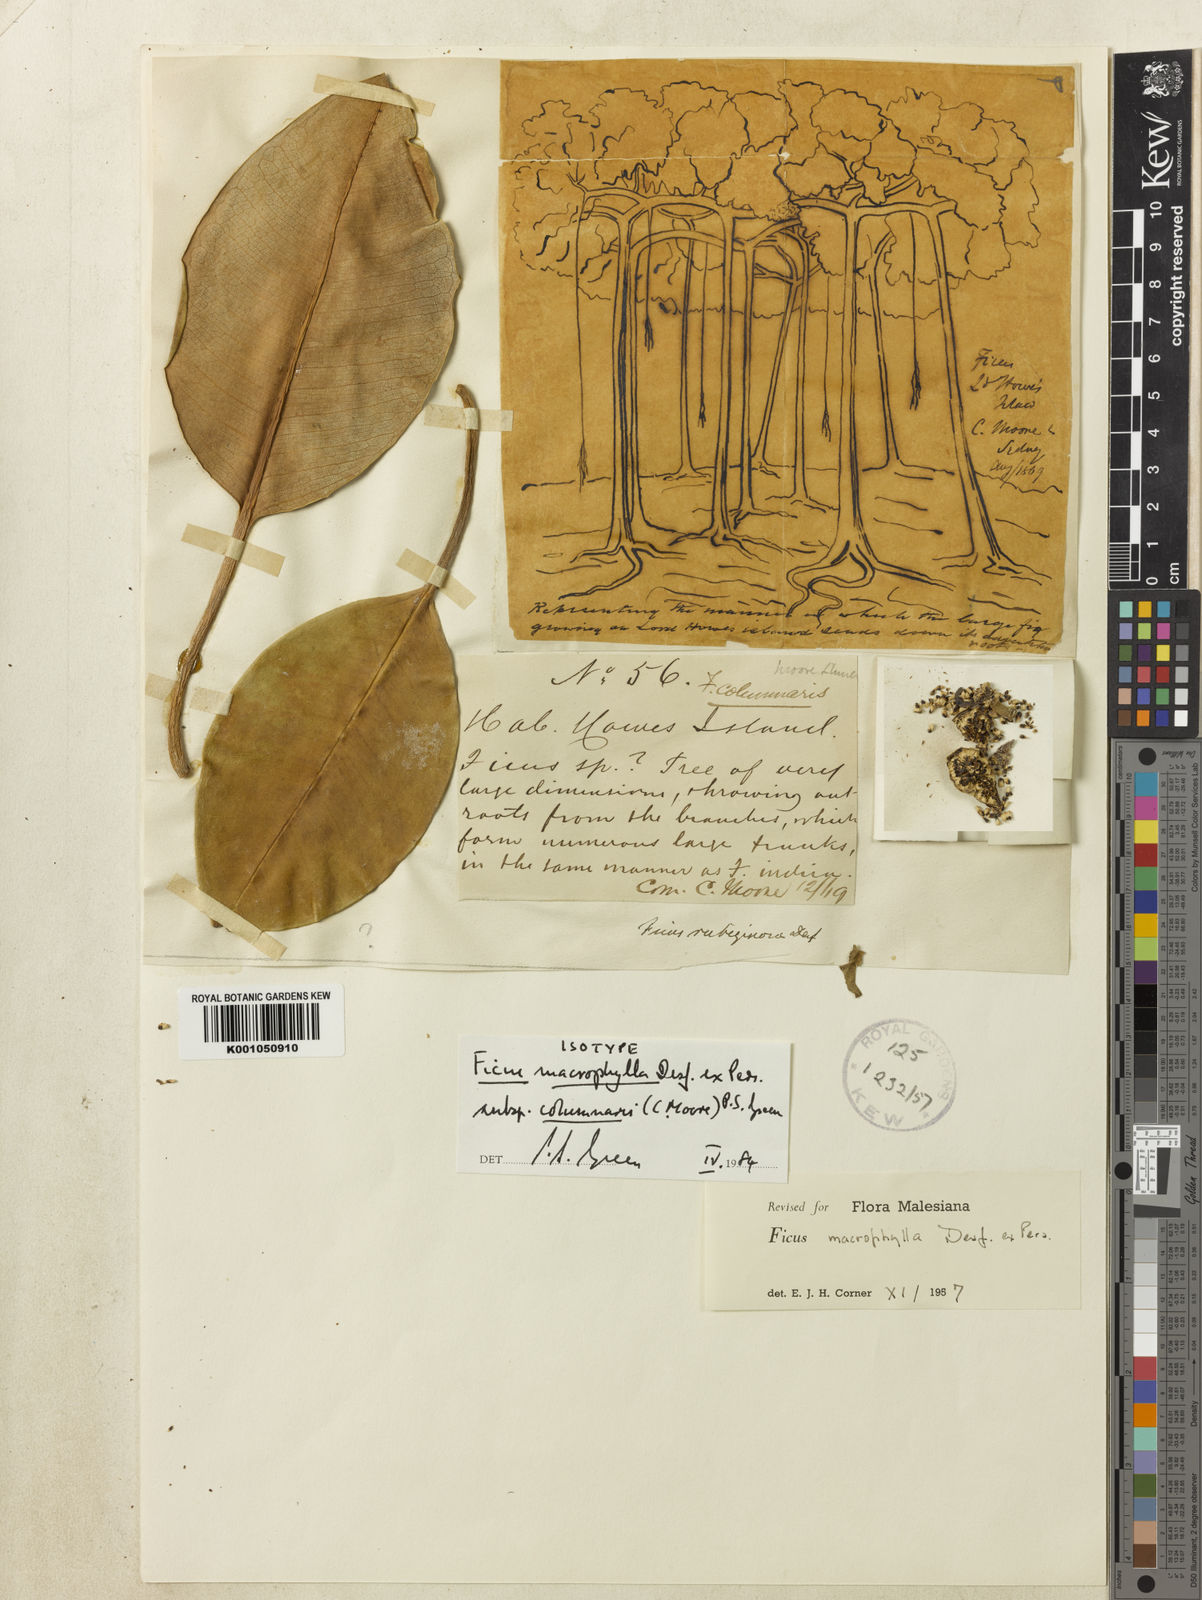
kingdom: Plantae
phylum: Tracheophyta
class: Magnoliopsida
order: Rosales
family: Moraceae
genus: Ficus
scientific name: Ficus
